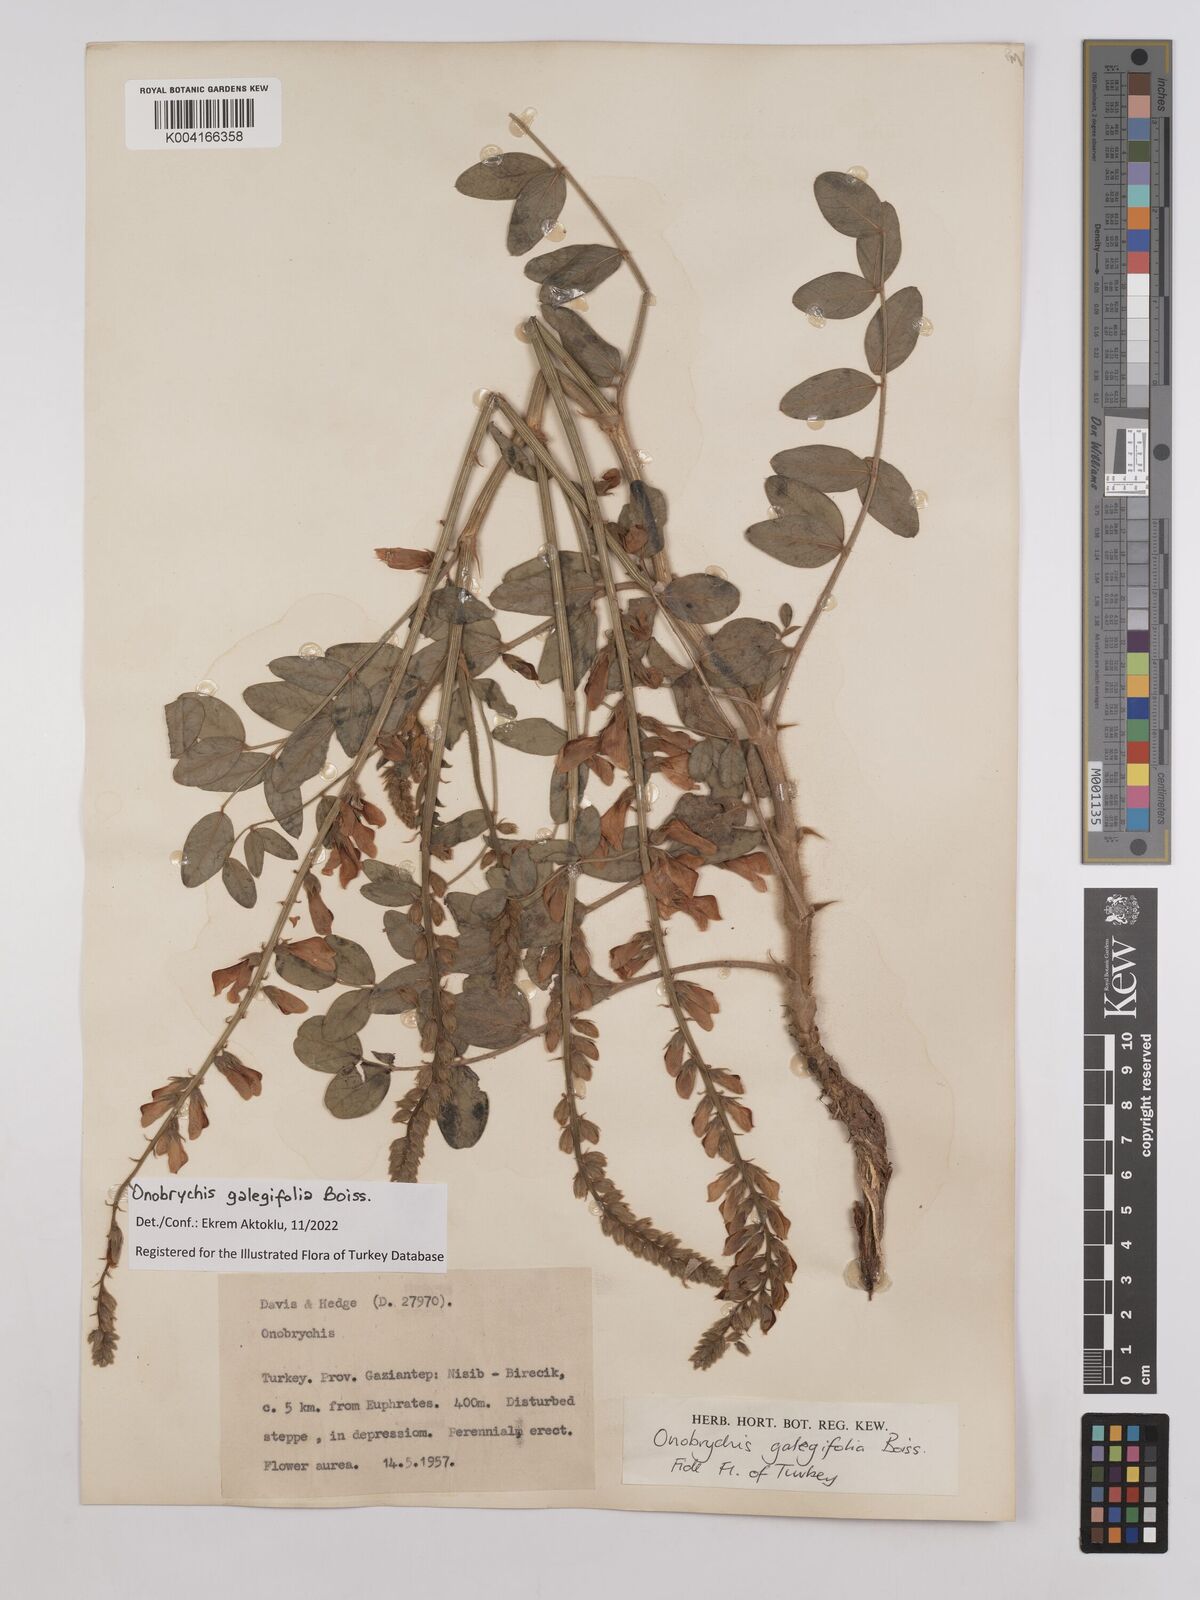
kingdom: Plantae
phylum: Tracheophyta
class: Magnoliopsida
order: Fabales
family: Fabaceae
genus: Onobrychis
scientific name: Onobrychis galegifolia
